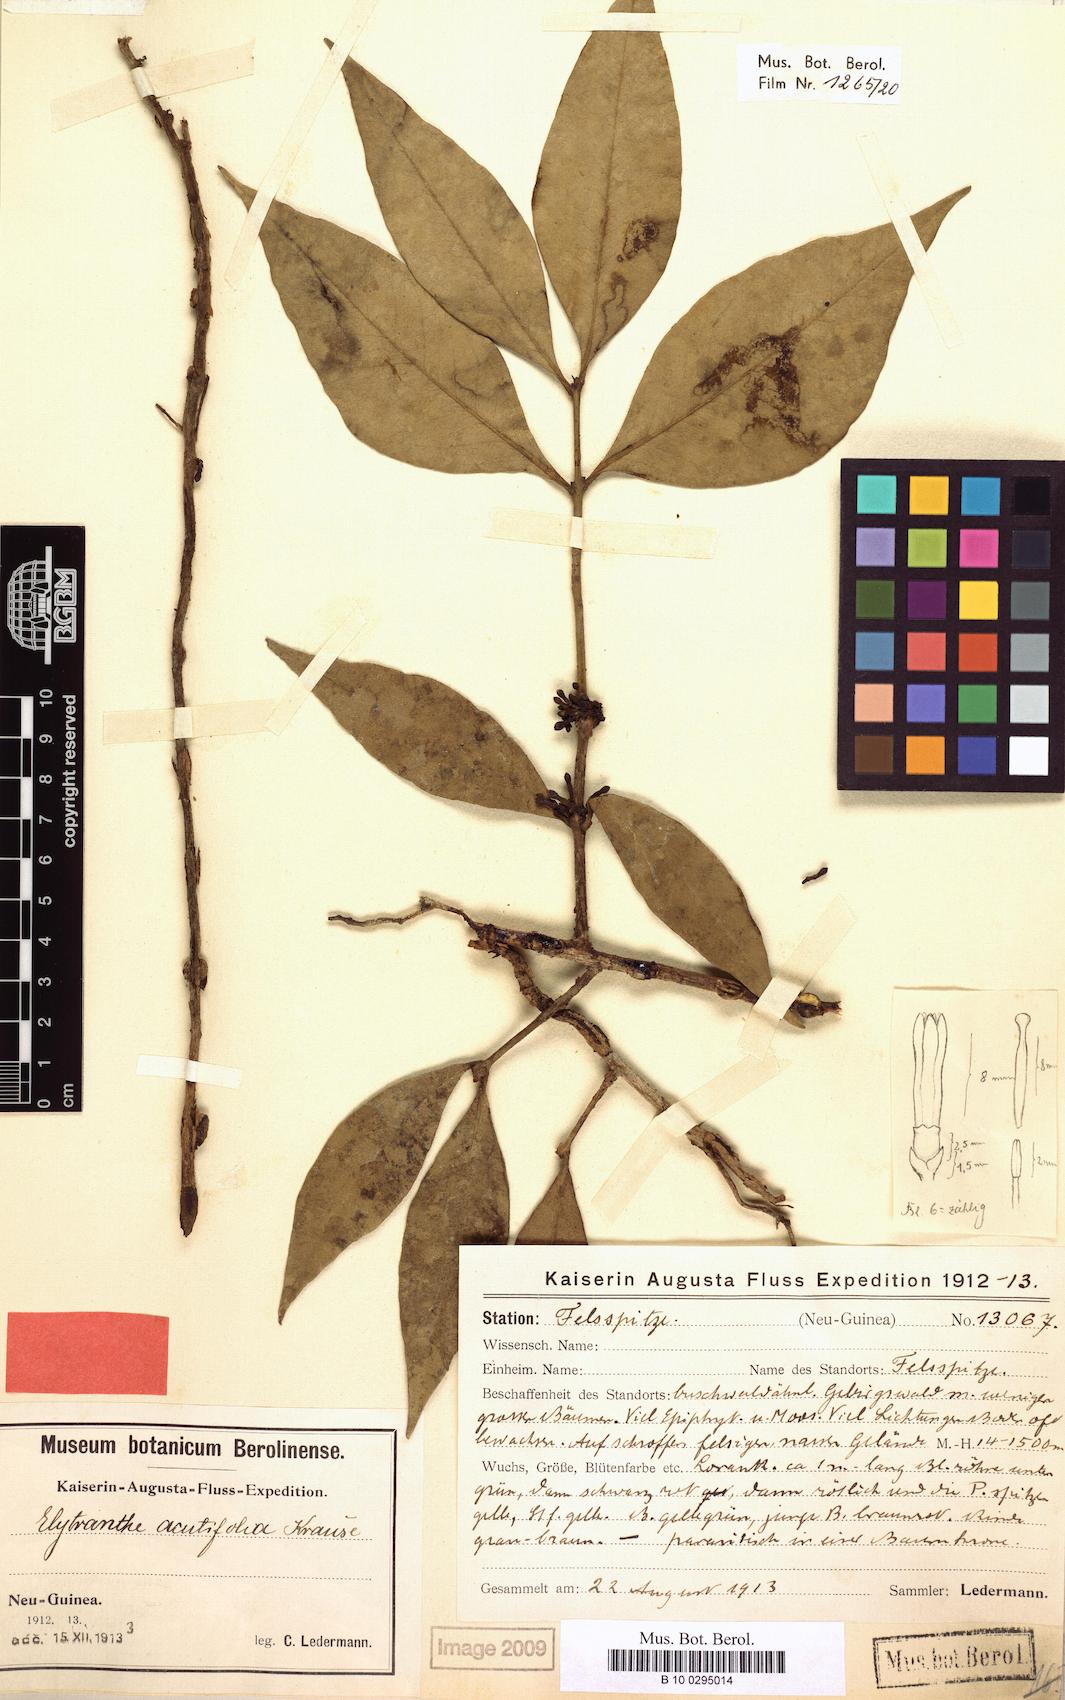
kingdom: Plantae
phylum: Tracheophyta
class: Magnoliopsida
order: Santalales
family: Loranthaceae
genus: Macrosolen
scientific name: Macrosolen cochinchinensis
